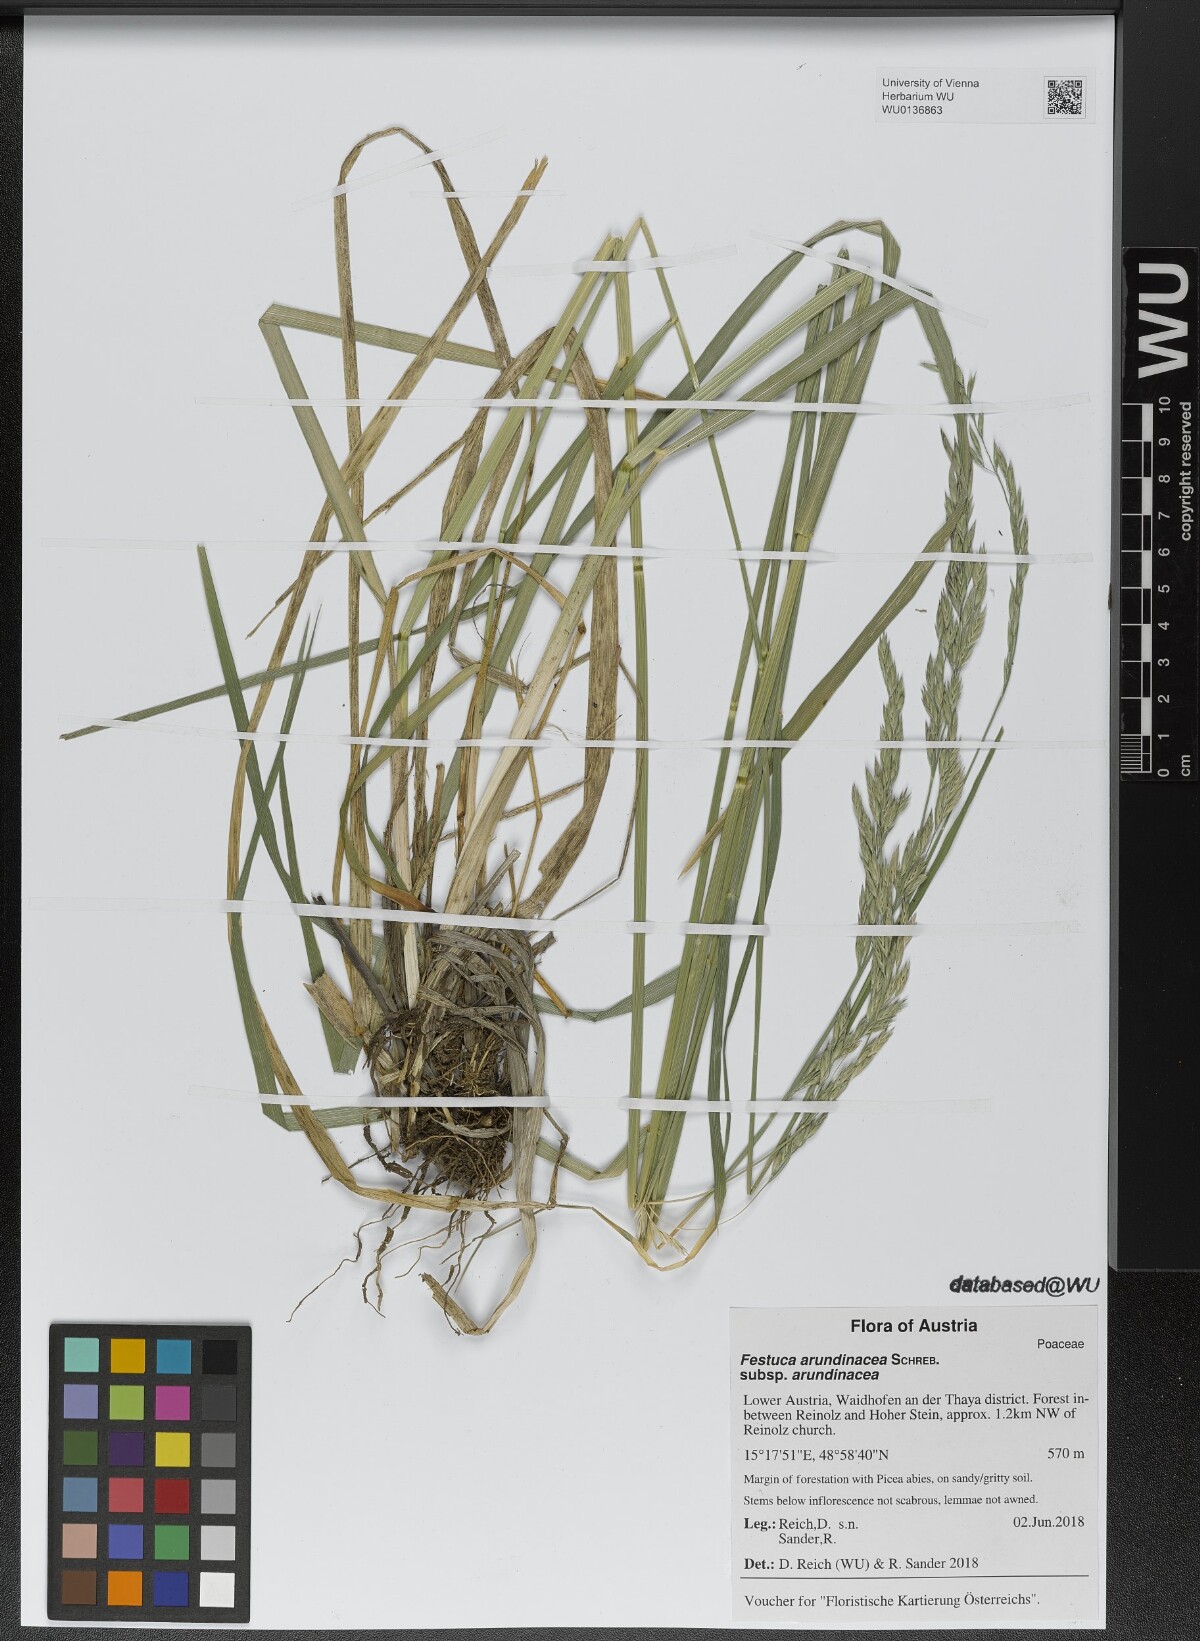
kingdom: Plantae
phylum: Tracheophyta
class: Liliopsida
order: Poales
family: Poaceae
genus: Lolium
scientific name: Lolium arundinaceum
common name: Reed fescue
